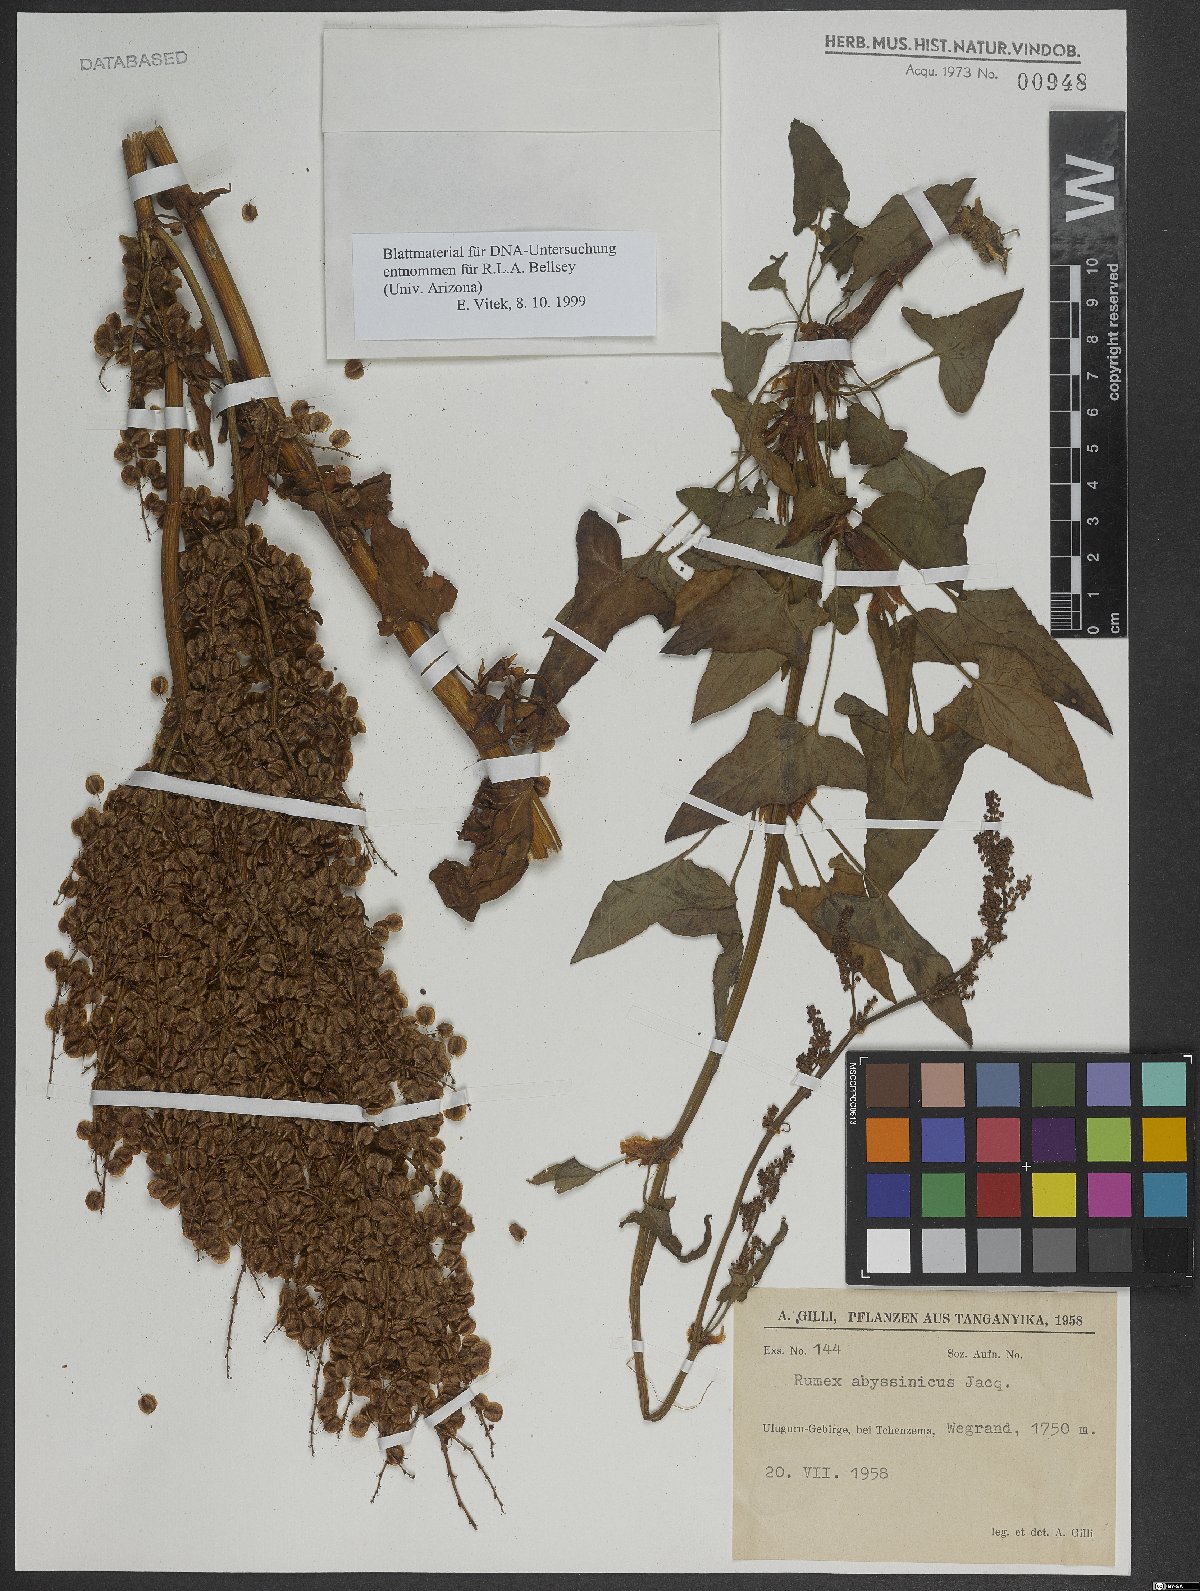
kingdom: Plantae
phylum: Tracheophyta
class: Magnoliopsida
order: Caryophyllales
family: Polygonaceae
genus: Rumex
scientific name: Rumex abyssinicus
